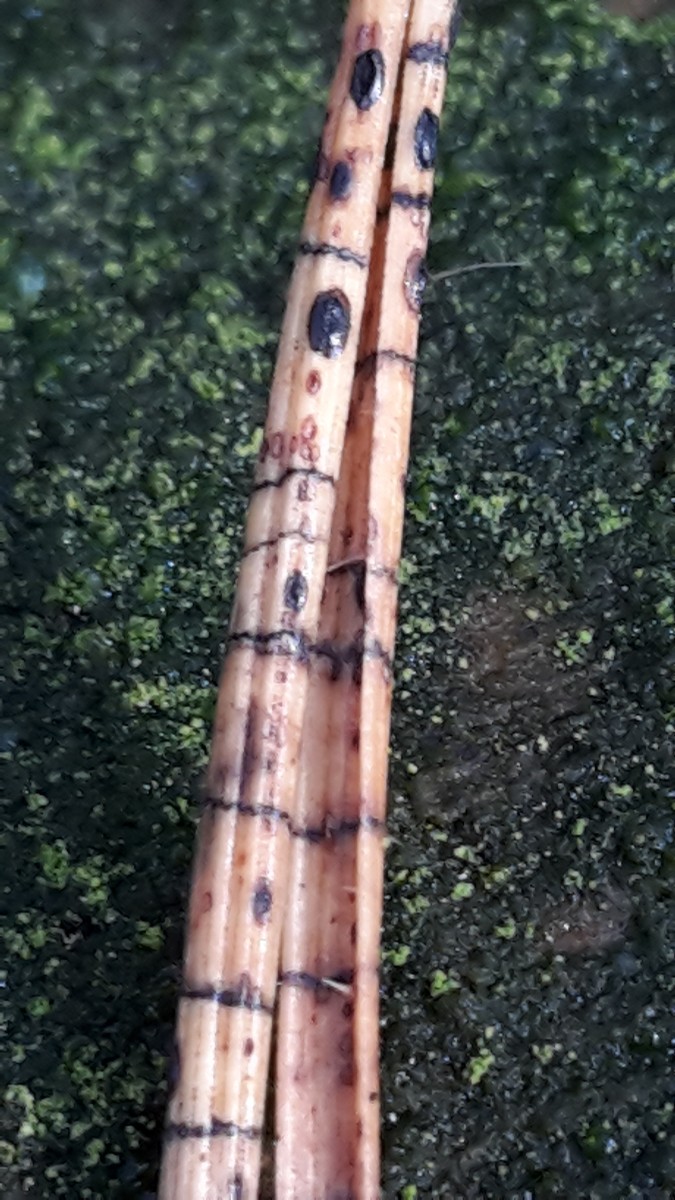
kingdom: Fungi
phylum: Ascomycota
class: Leotiomycetes
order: Rhytismatales
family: Rhytismataceae
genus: Lophodermium
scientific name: Lophodermium pinastri
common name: fyrre-fureplet
